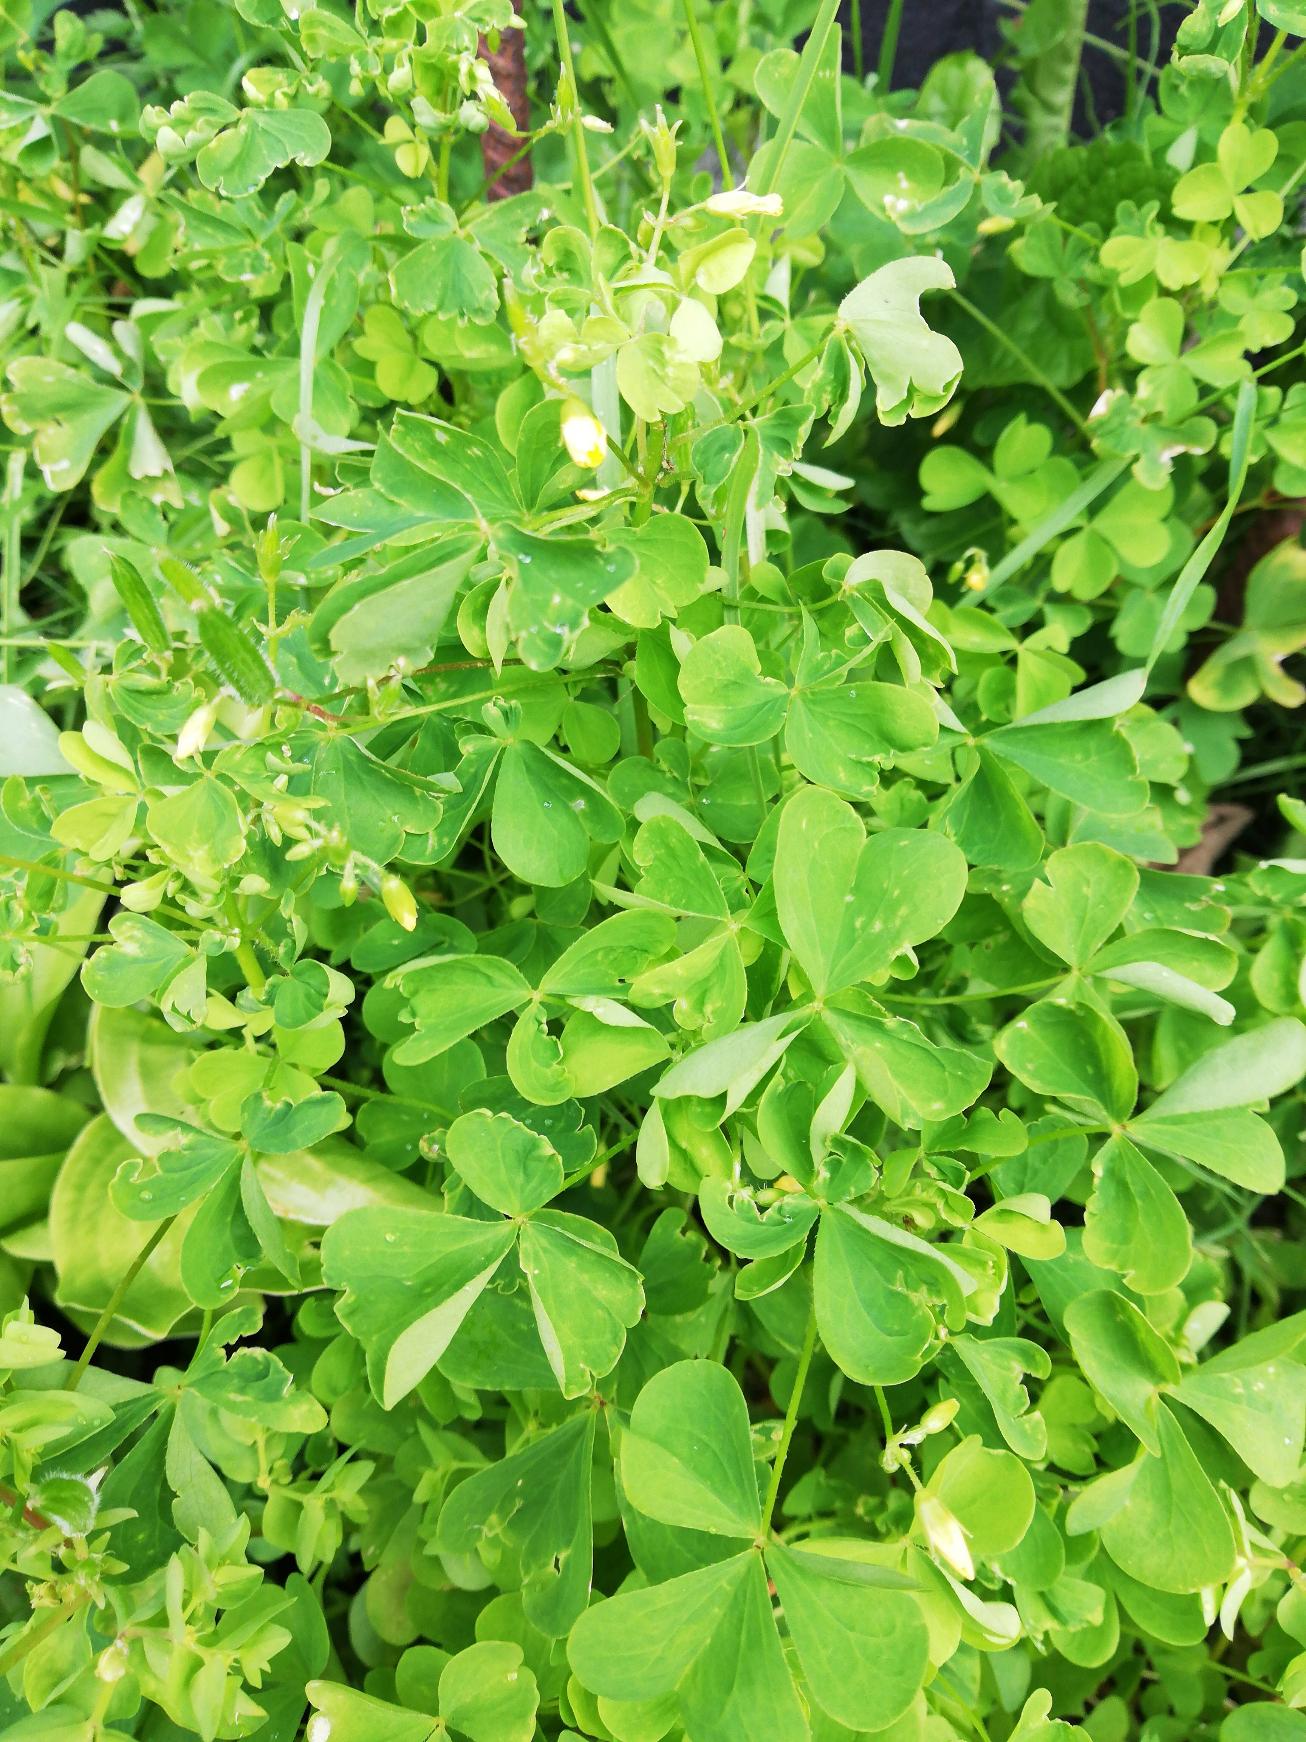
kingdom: Plantae
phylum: Tracheophyta
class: Magnoliopsida
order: Oxalidales
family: Oxalidaceae
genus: Oxalis
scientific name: Oxalis stricta
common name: Rank surkløver
